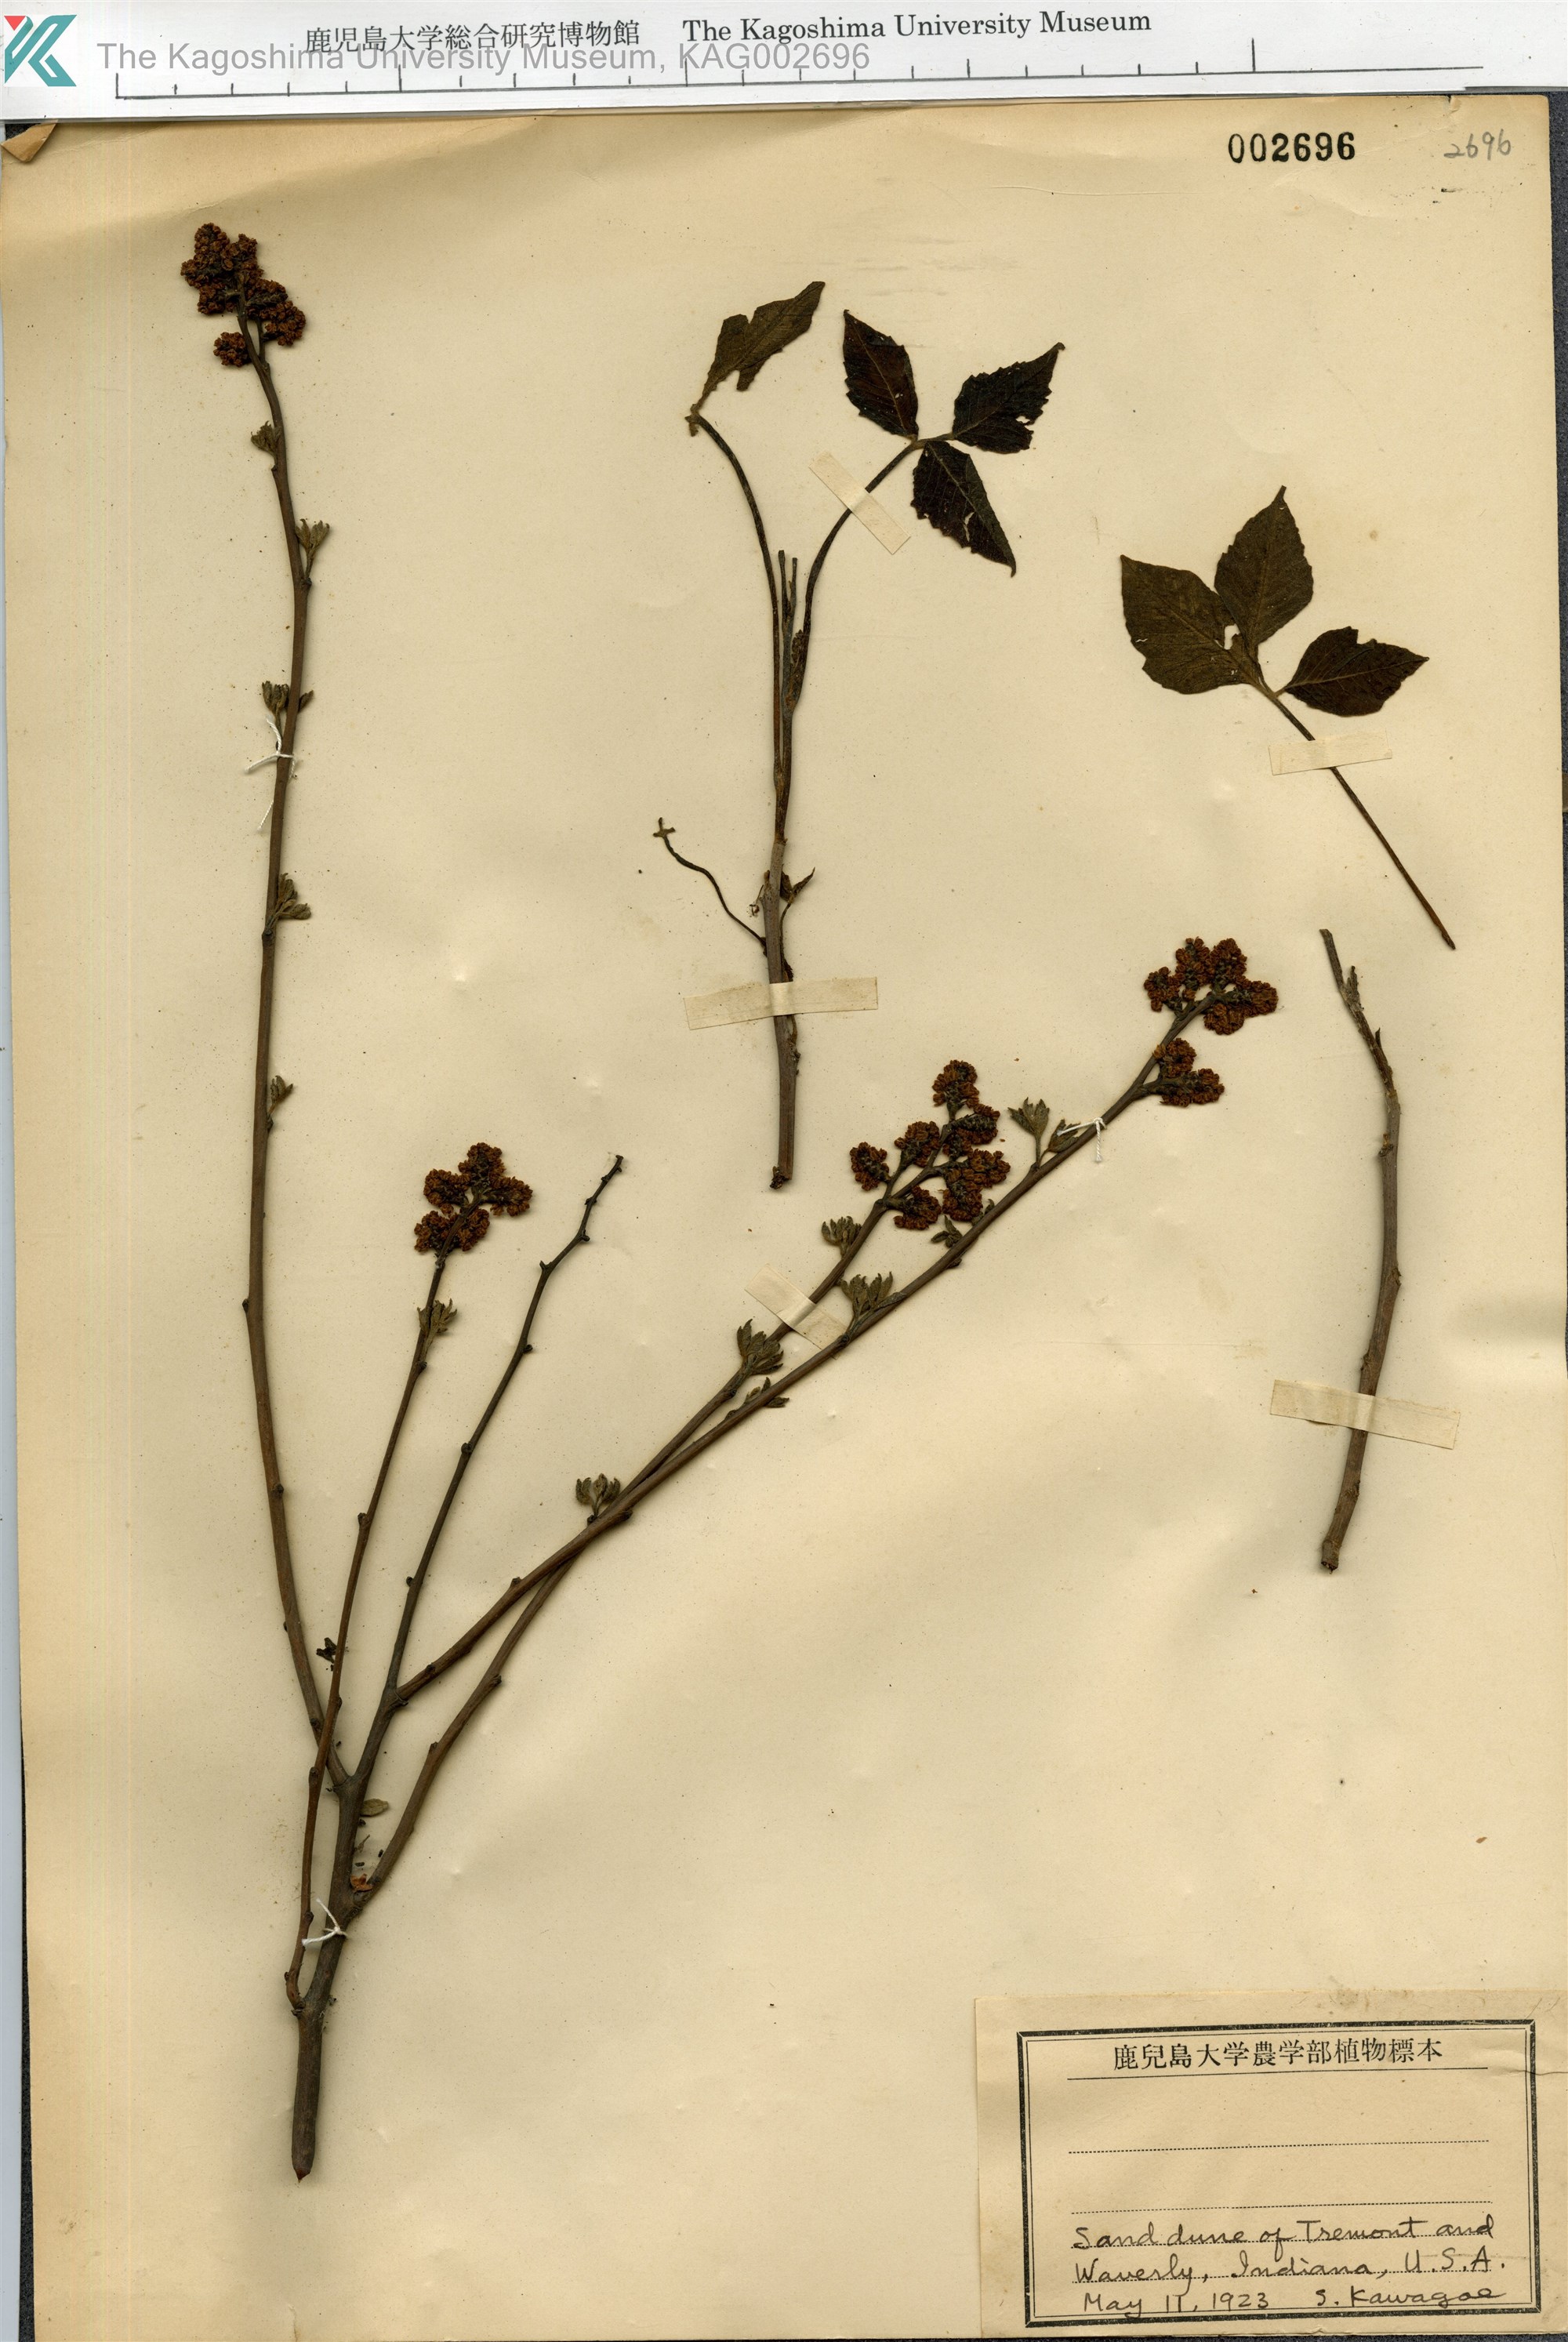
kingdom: Plantae
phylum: Tracheophyta
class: Magnoliopsida
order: Sapindales
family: Anacardiaceae
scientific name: Anacardiaceae
